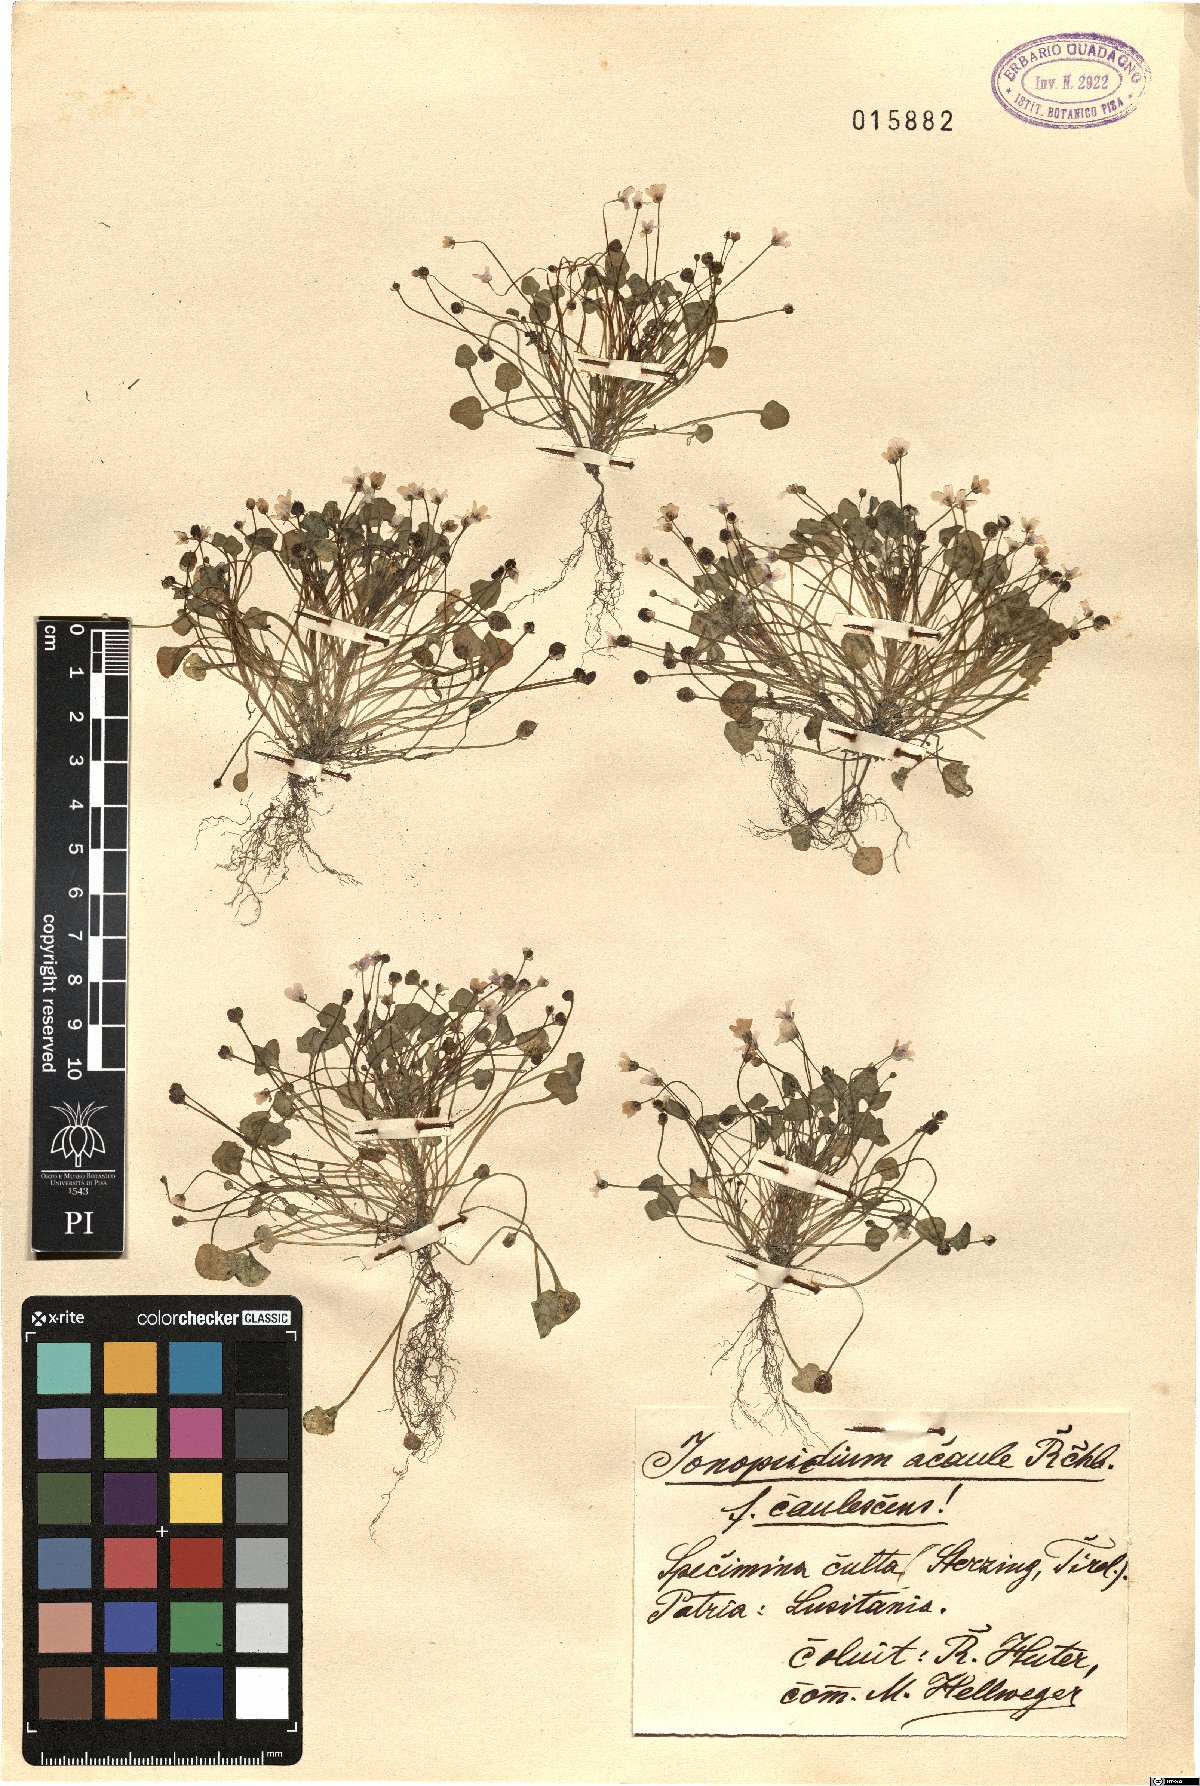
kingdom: Plantae
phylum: Tracheophyta
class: Magnoliopsida
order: Brassicales
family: Brassicaceae
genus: Ionopsidium
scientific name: Ionopsidium acaule
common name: False diamondflower
